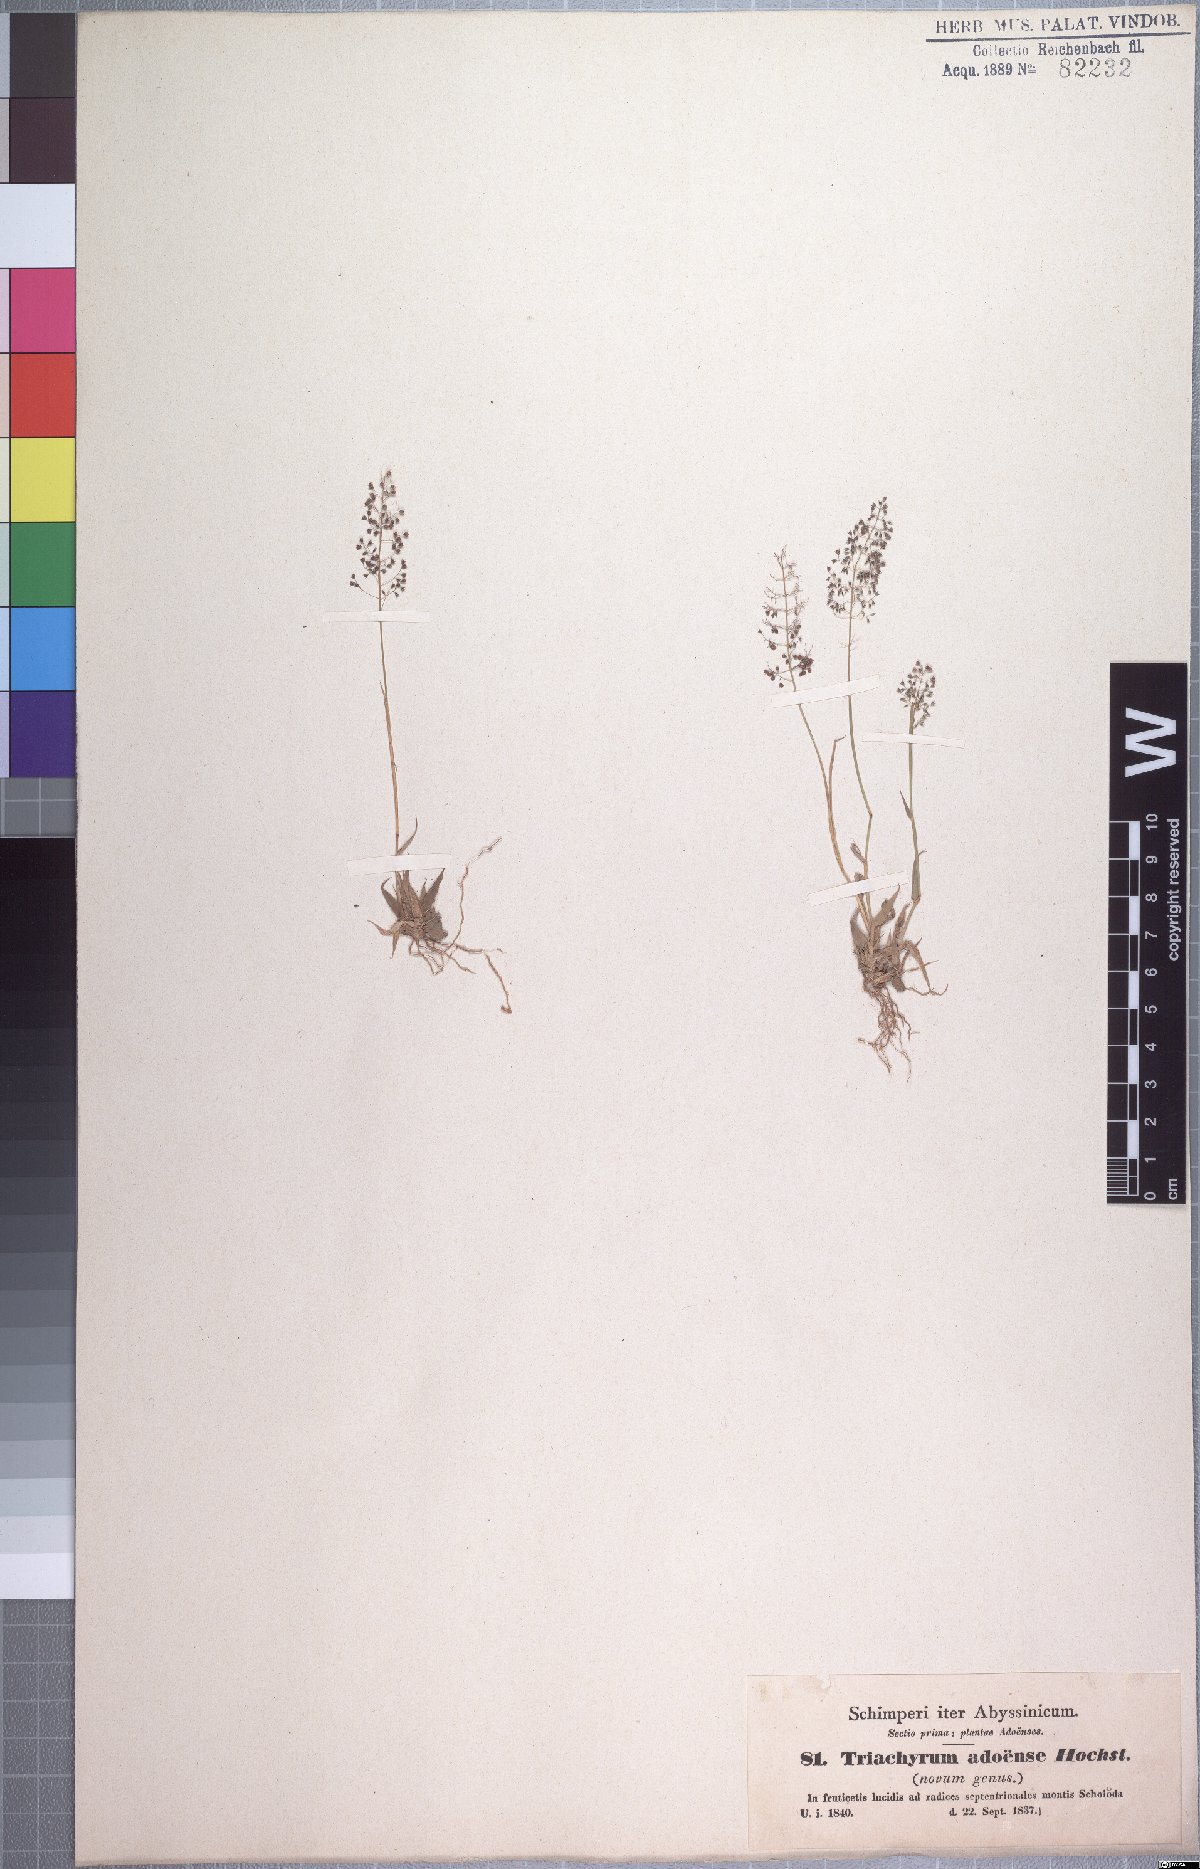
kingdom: Plantae
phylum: Tracheophyta
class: Liliopsida
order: Poales
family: Poaceae
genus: Sporobolus
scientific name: Sporobolus discosporus
